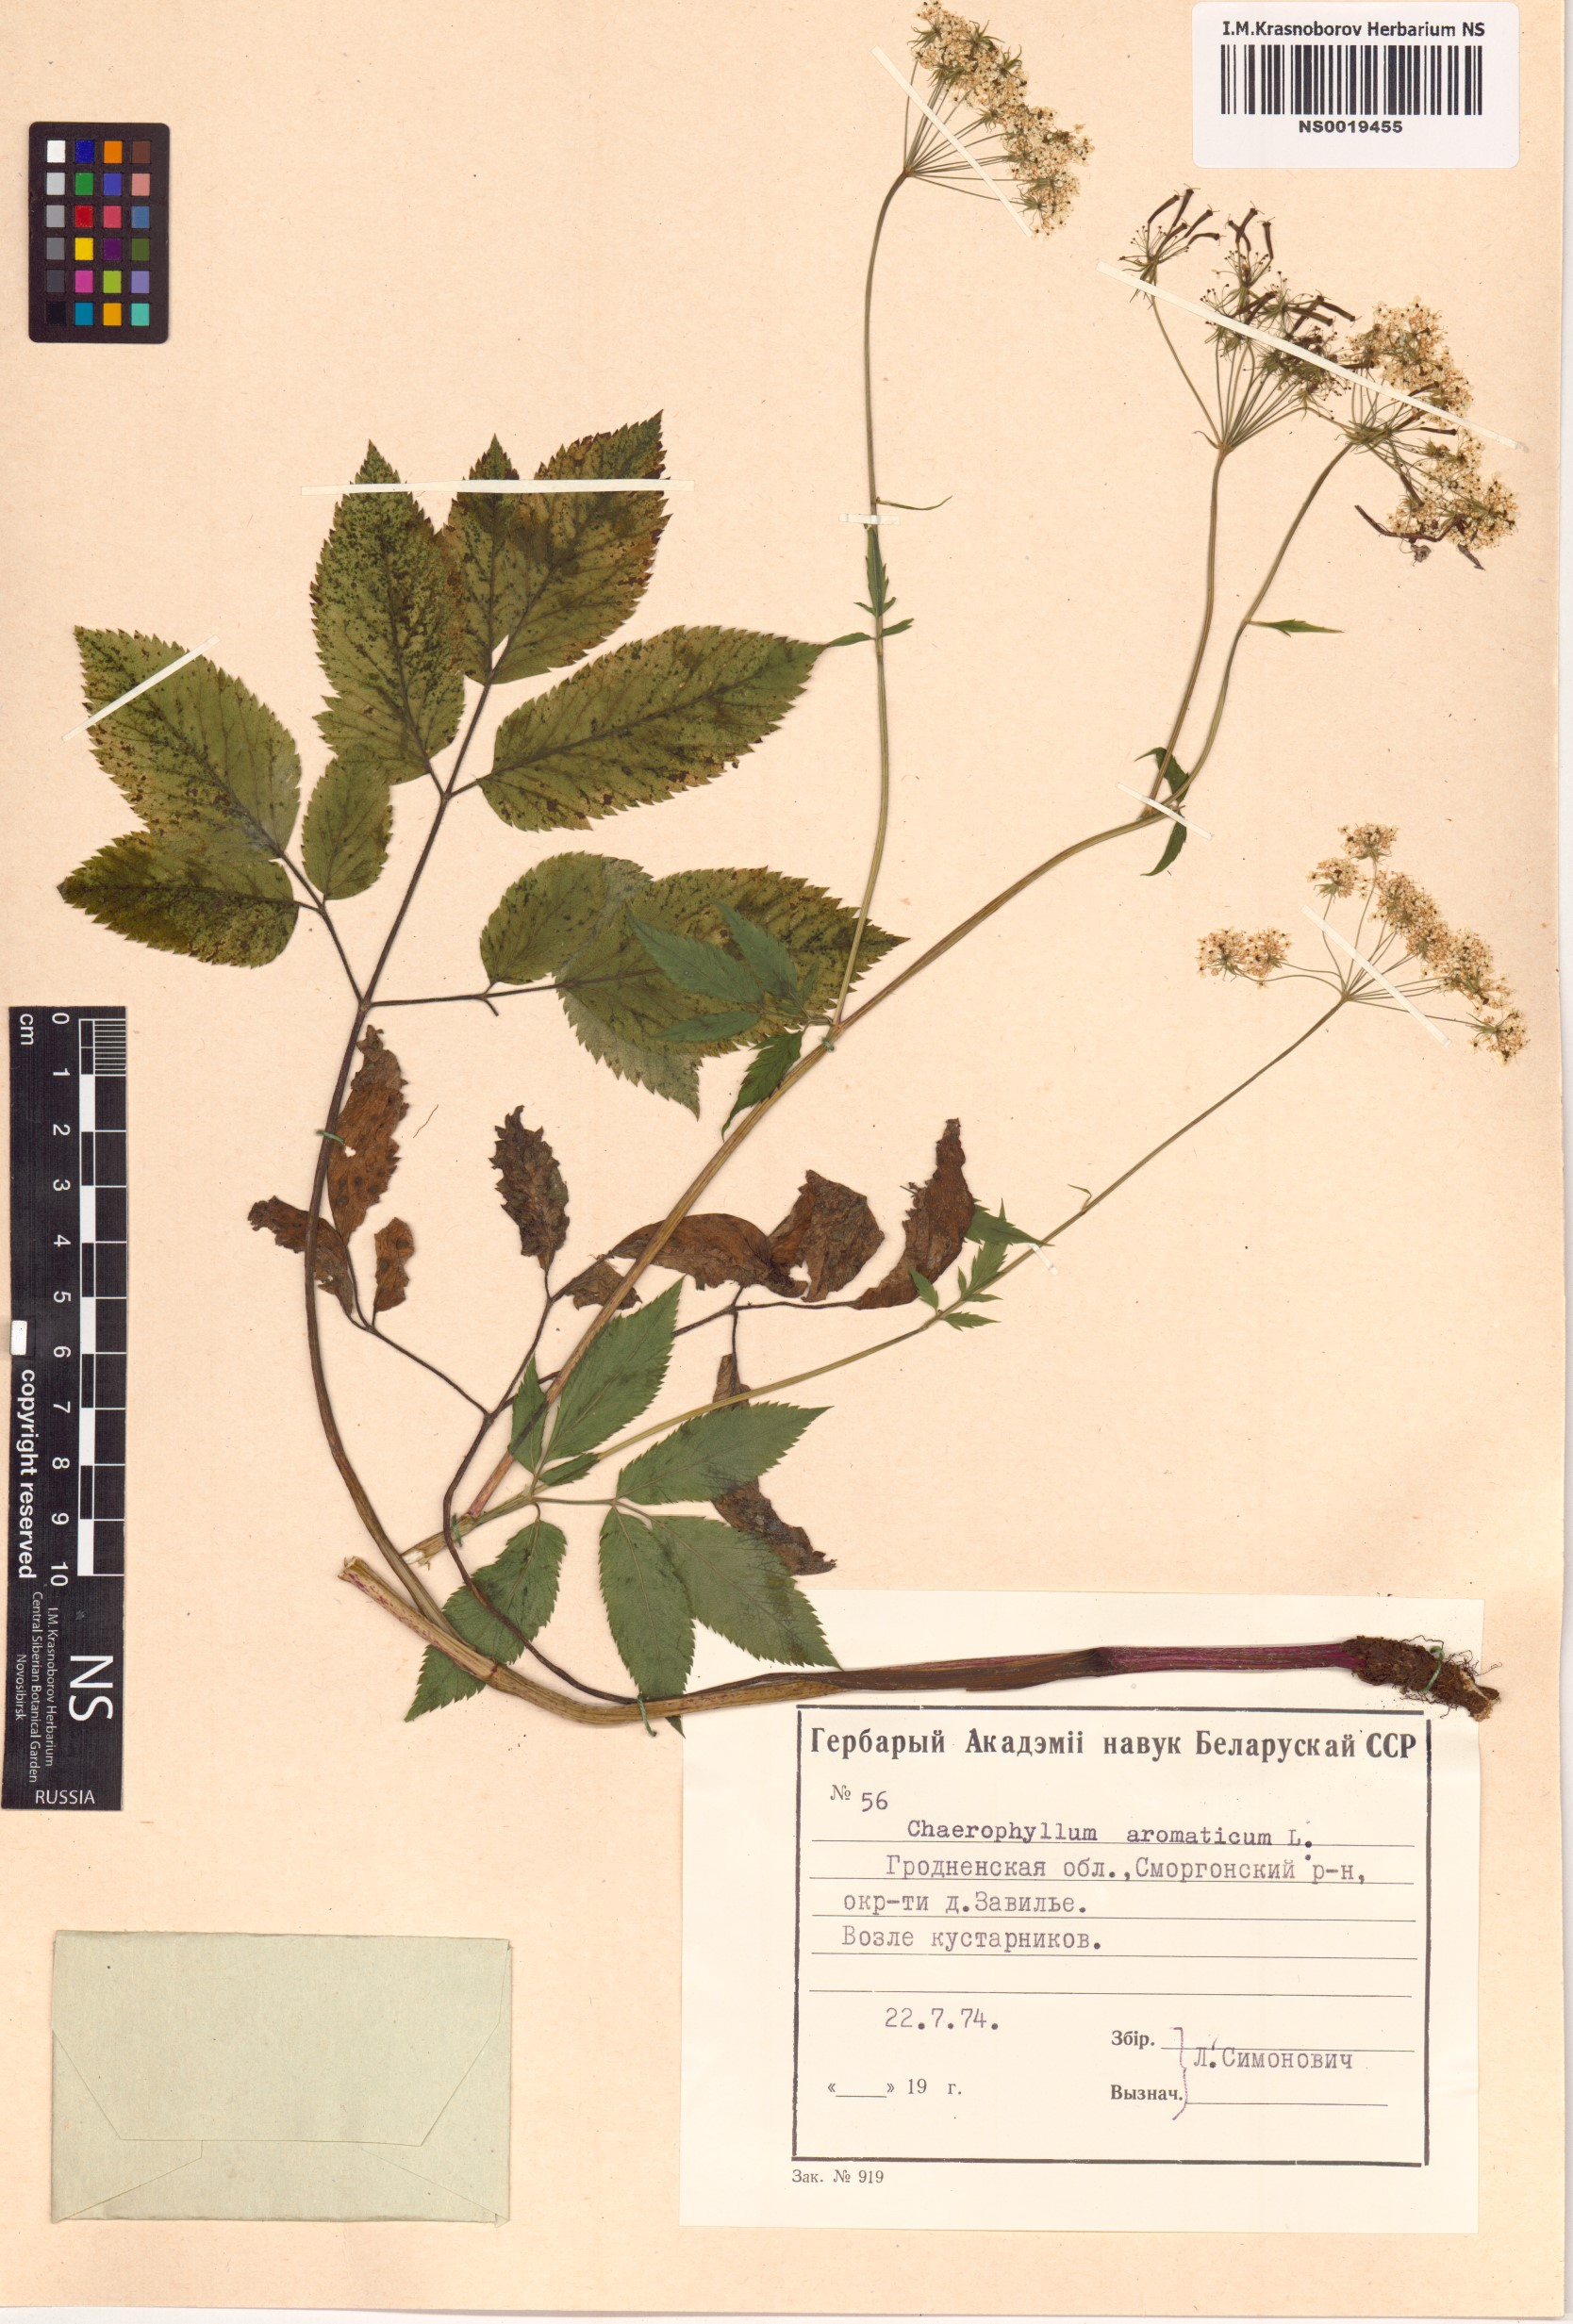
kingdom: Plantae
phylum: Tracheophyta
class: Magnoliopsida
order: Apiales
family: Apiaceae
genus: Chaerophyllum
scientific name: Chaerophyllum aromaticum
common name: Broadleaf chervil
